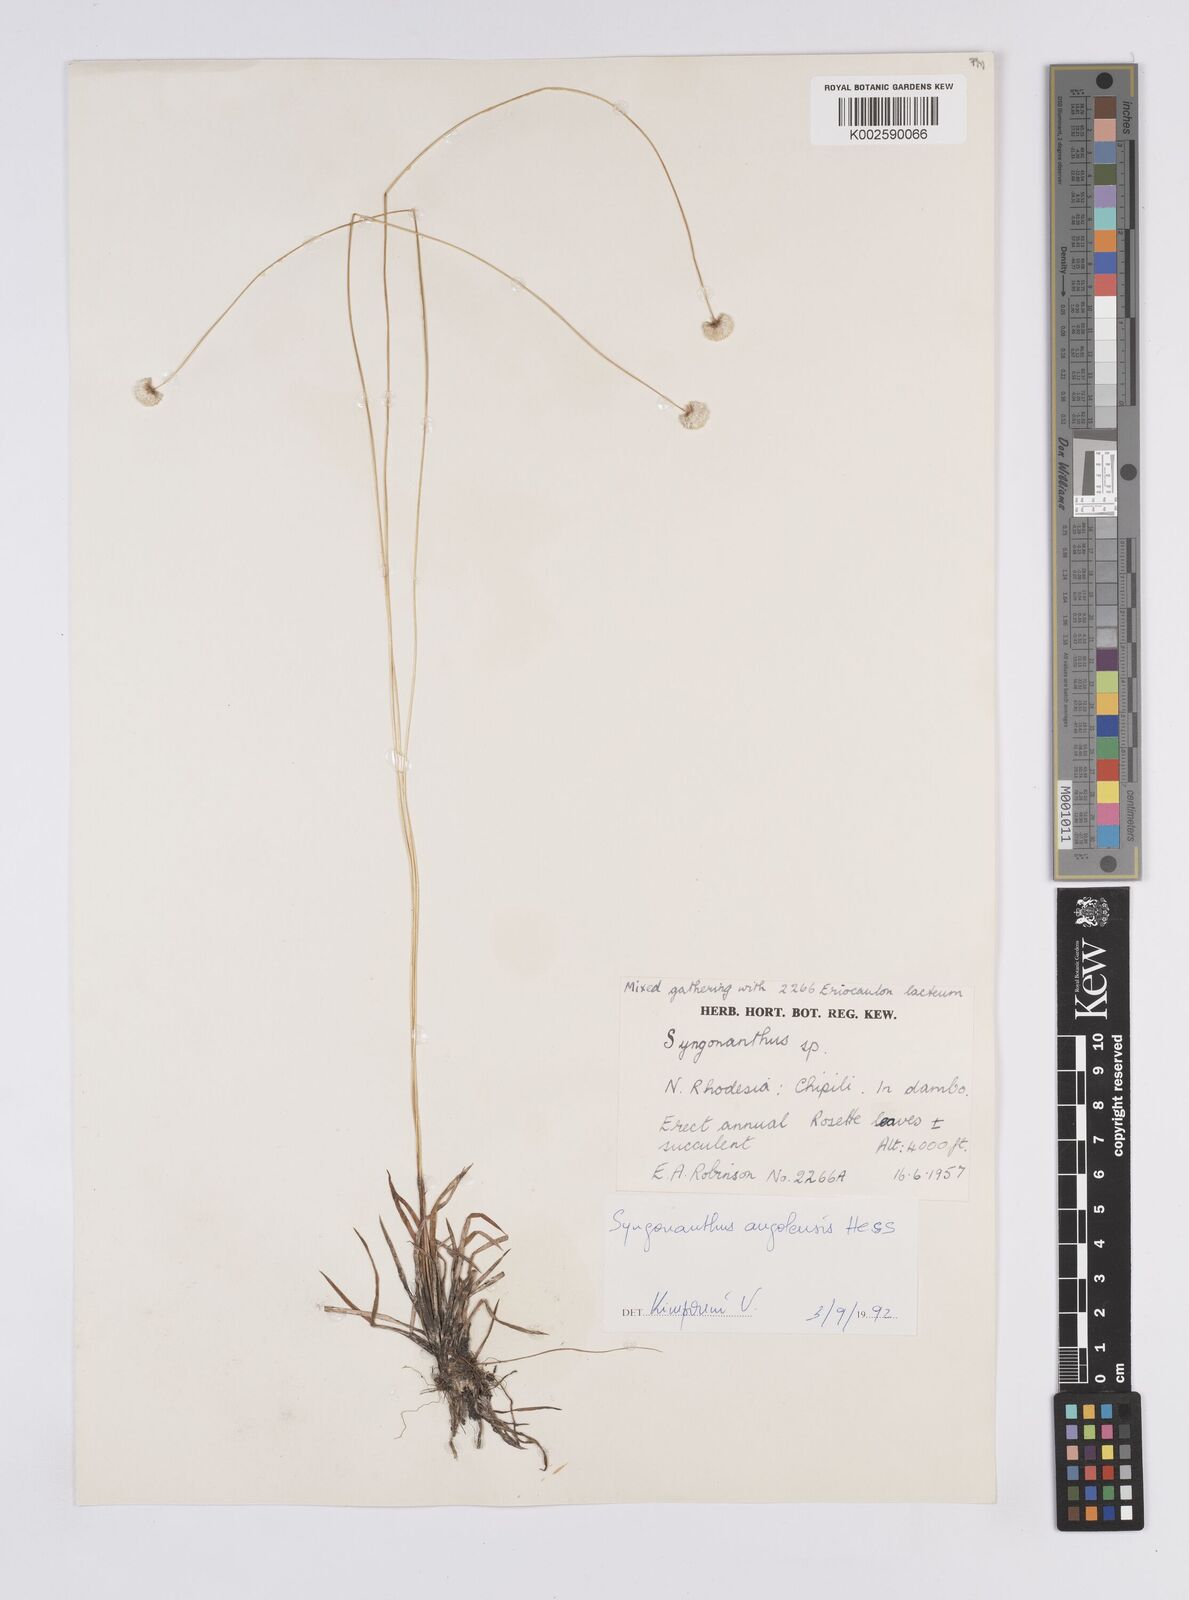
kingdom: Plantae
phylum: Tracheophyta
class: Liliopsida
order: Poales
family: Eriocaulaceae
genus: Syngonanthus
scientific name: Syngonanthus angolensis
